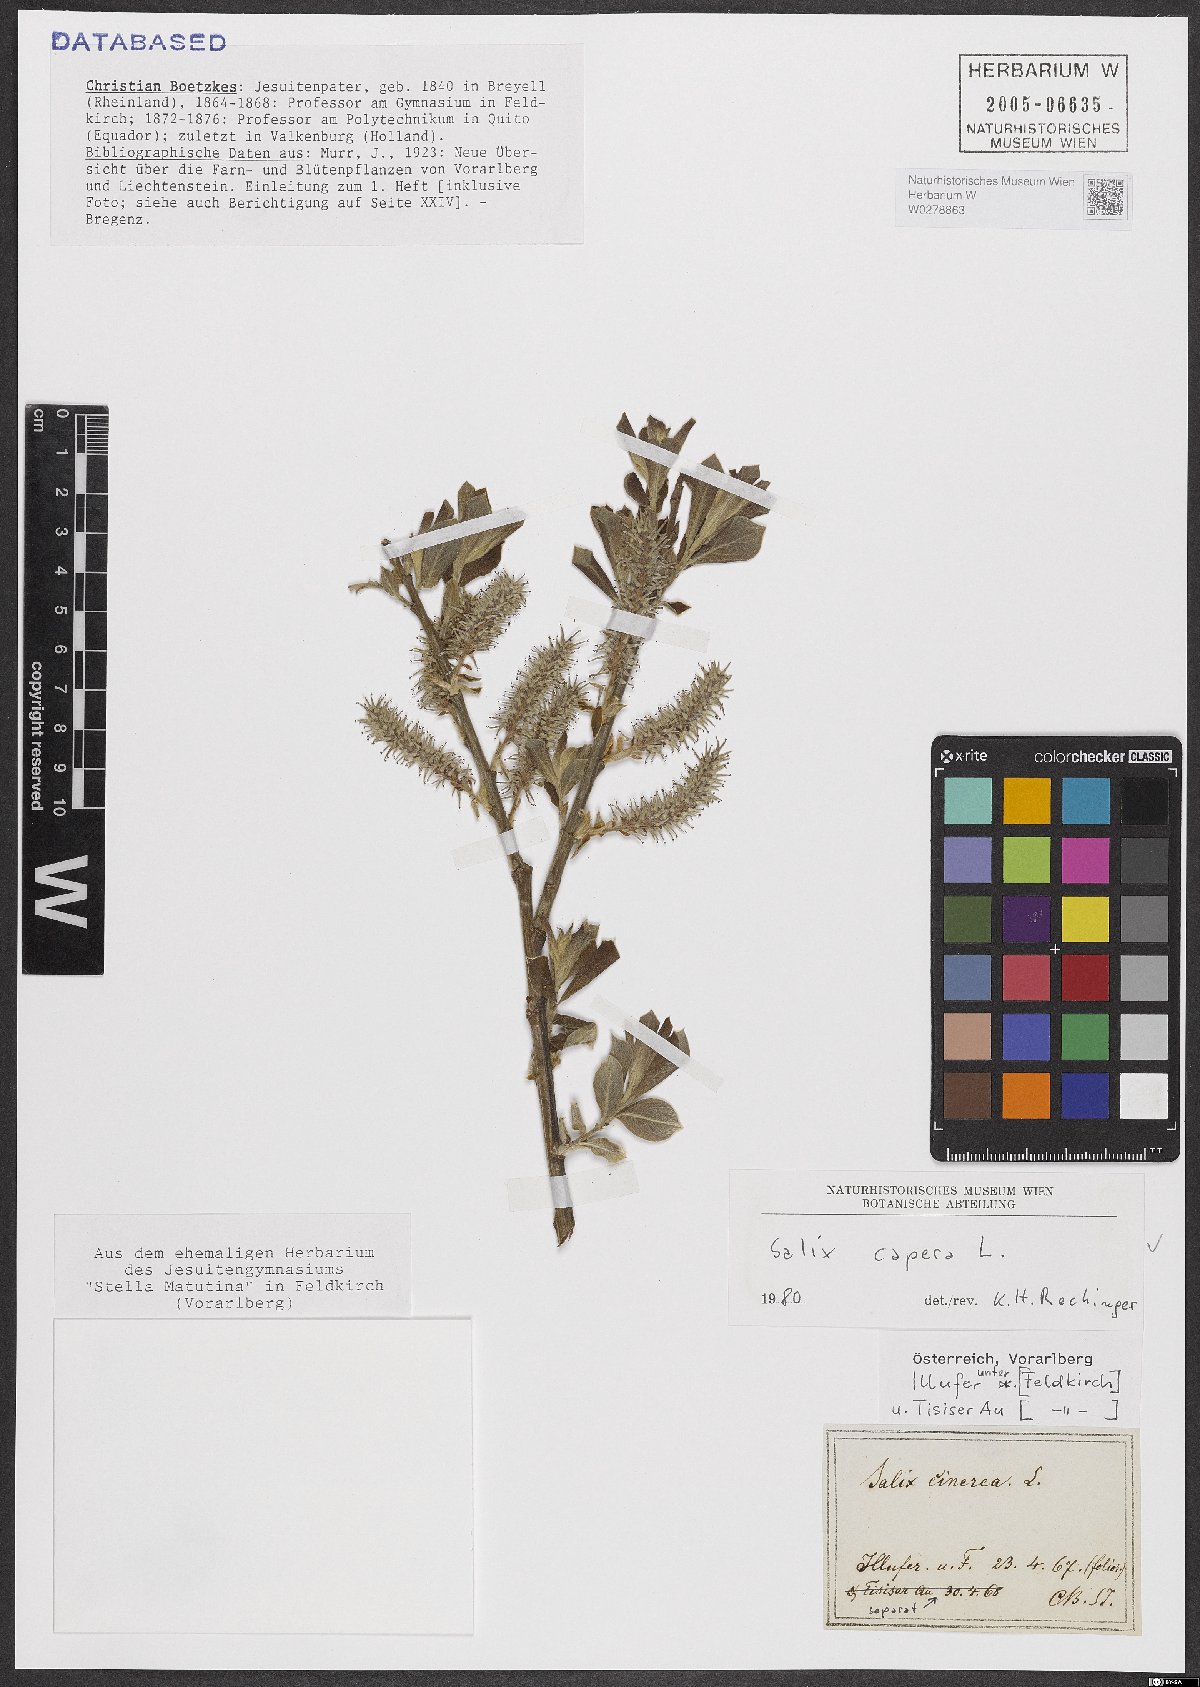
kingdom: Plantae
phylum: Tracheophyta
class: Magnoliopsida
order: Malpighiales
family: Salicaceae
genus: Salix
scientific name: Salix caprea
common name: Goat willow
